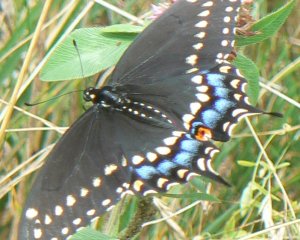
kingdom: Animalia
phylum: Arthropoda
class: Insecta
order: Lepidoptera
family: Papilionidae
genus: Papilio
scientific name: Papilio polyxenes
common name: Black Swallowtail
